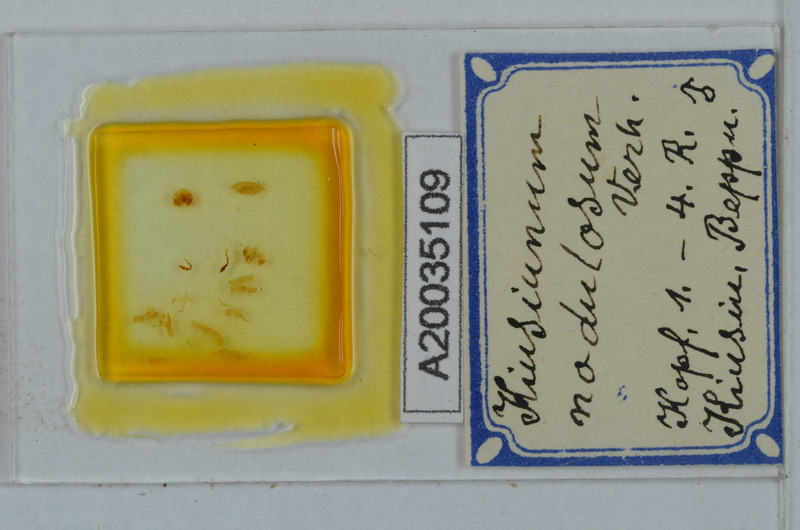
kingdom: Animalia
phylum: Arthropoda
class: Diplopoda
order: Polydesmida
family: Cryptodesmidae
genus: Kiusiunum
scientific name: Kiusiunum nodulosum
